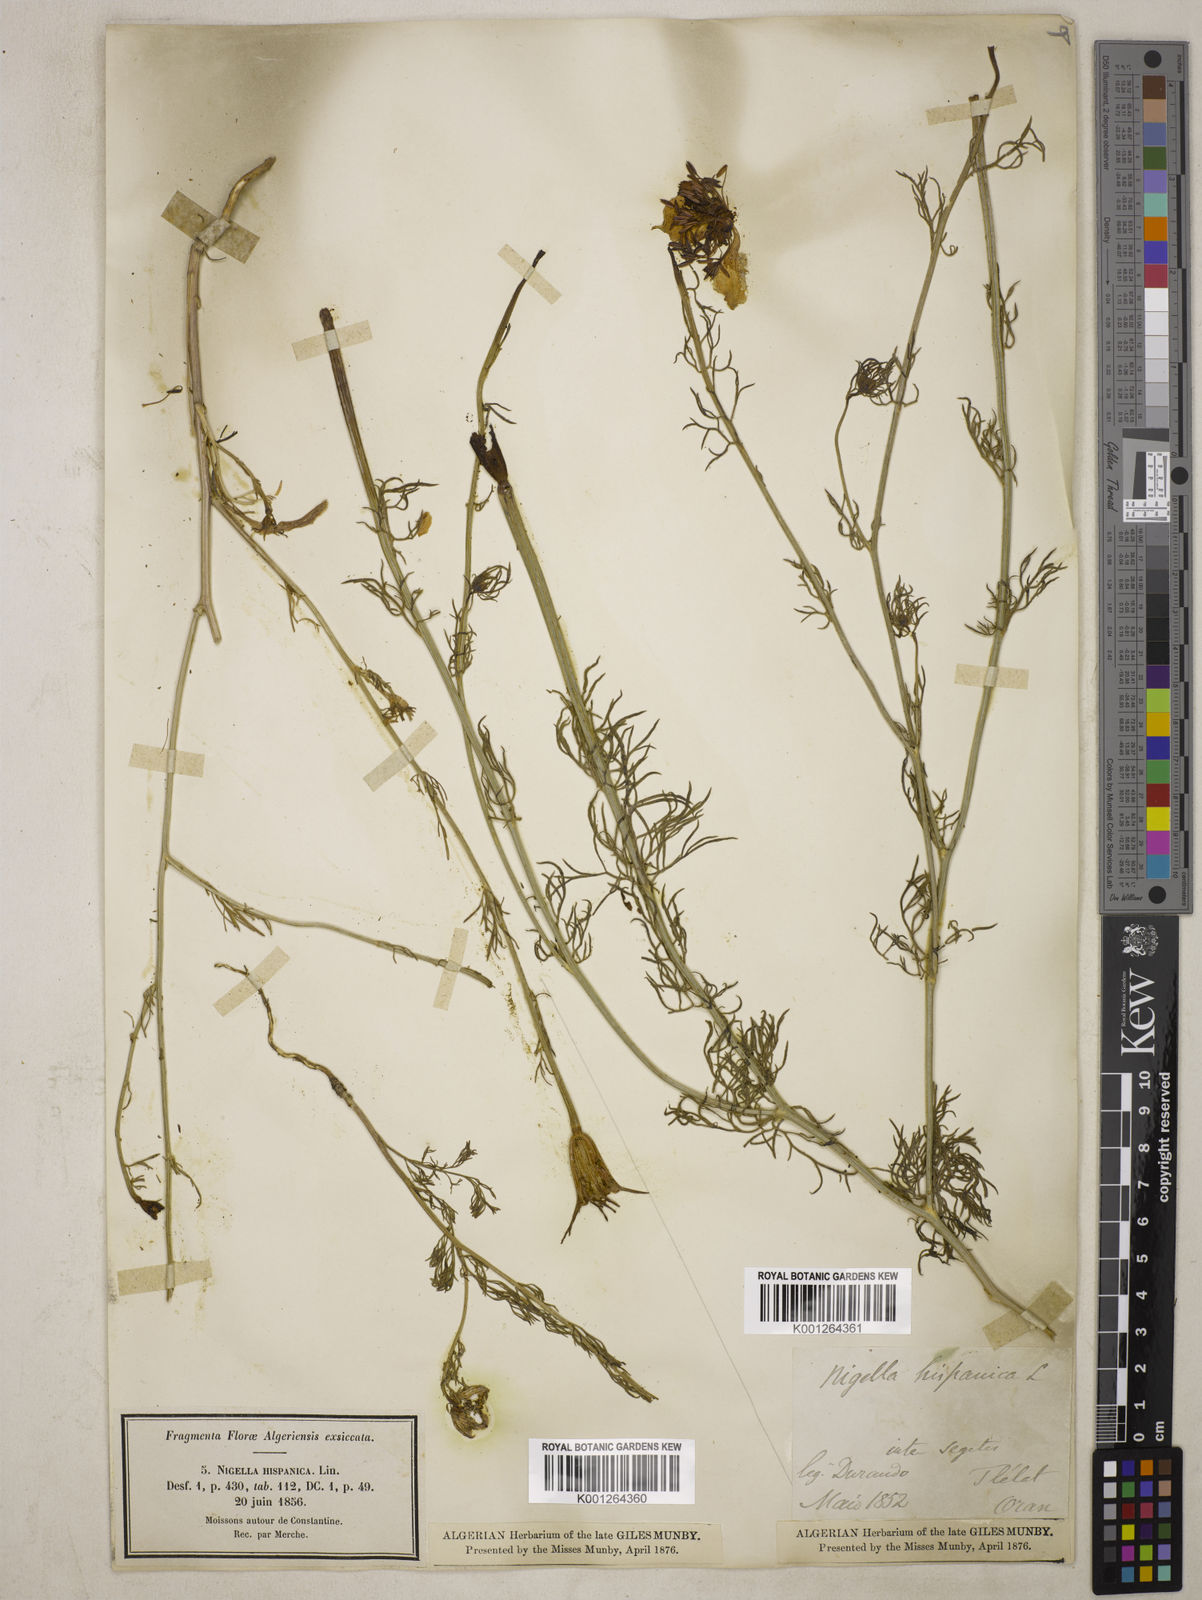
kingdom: Plantae
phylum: Tracheophyta
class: Magnoliopsida
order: Ranunculales
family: Ranunculaceae
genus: Nigella
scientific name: Nigella hispanica
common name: Fennel-flower
